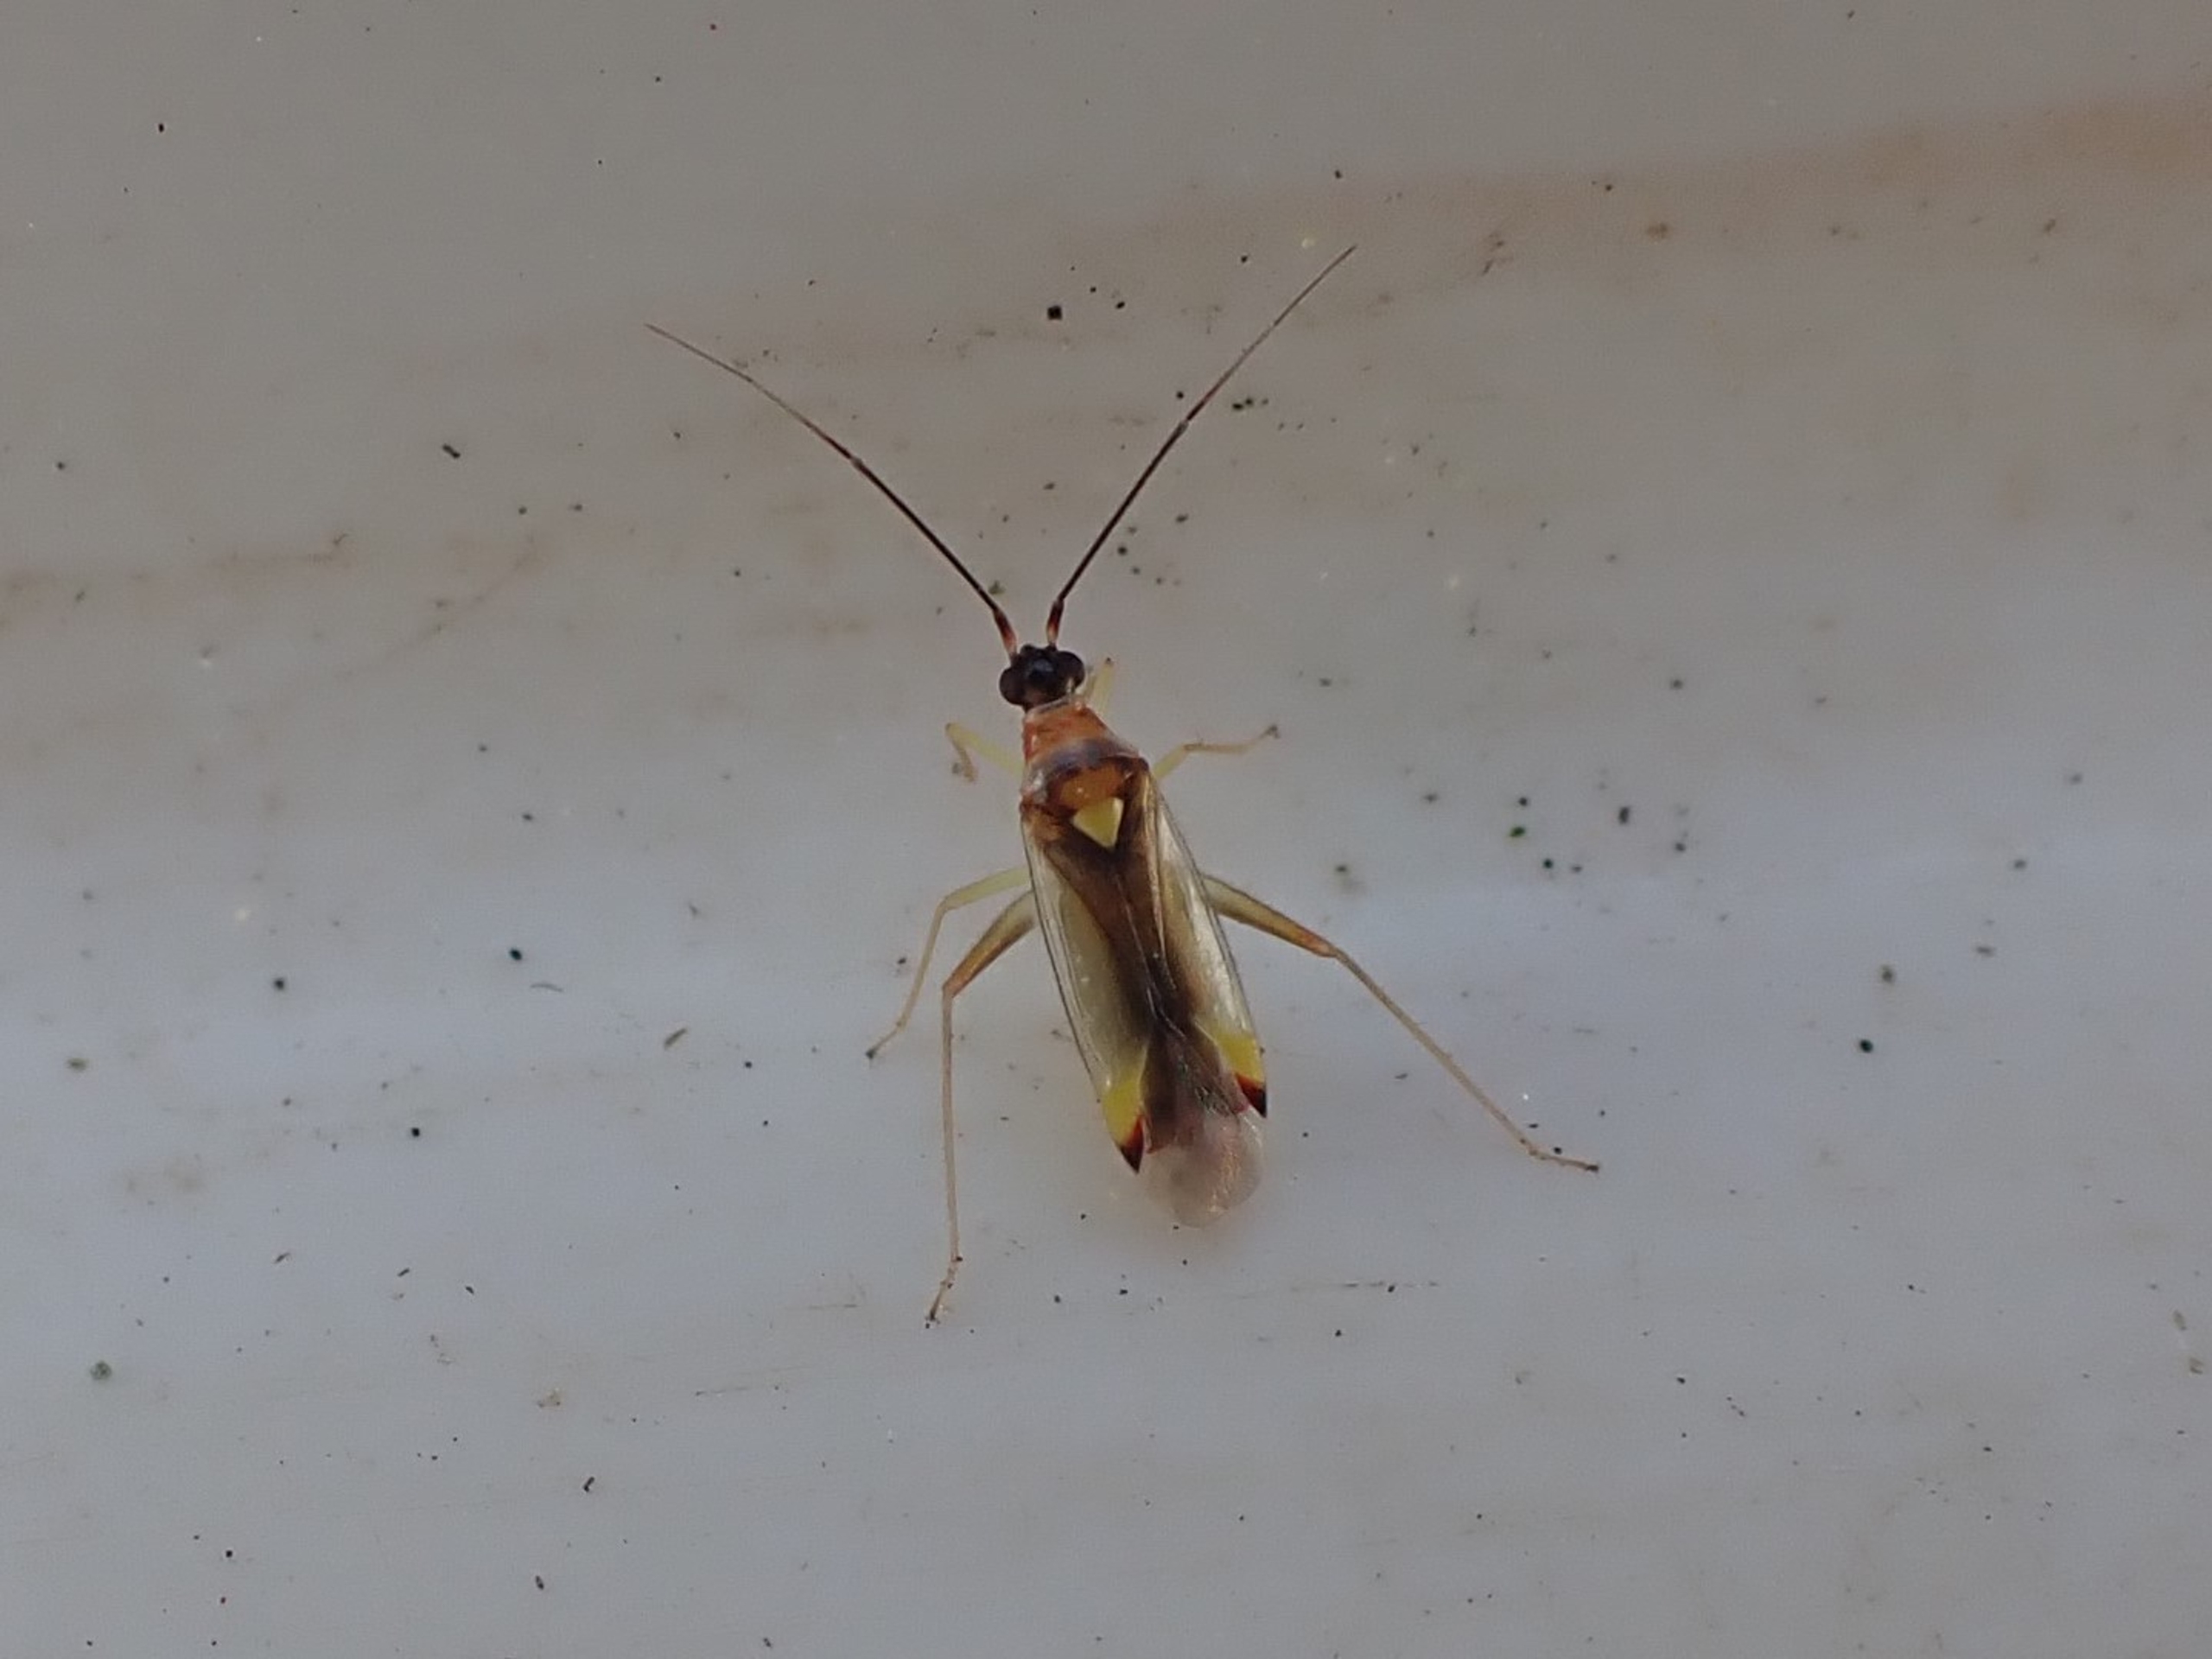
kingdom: Animalia
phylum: Arthropoda
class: Insecta
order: Hemiptera
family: Miridae
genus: Campyloneura
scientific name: Campyloneura virgula
